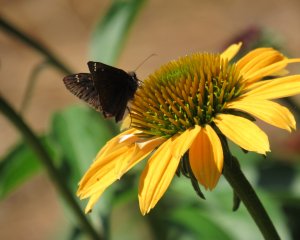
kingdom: Animalia
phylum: Arthropoda
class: Insecta
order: Lepidoptera
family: Hesperiidae
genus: Gesta
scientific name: Gesta
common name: Horace's Duskywing
